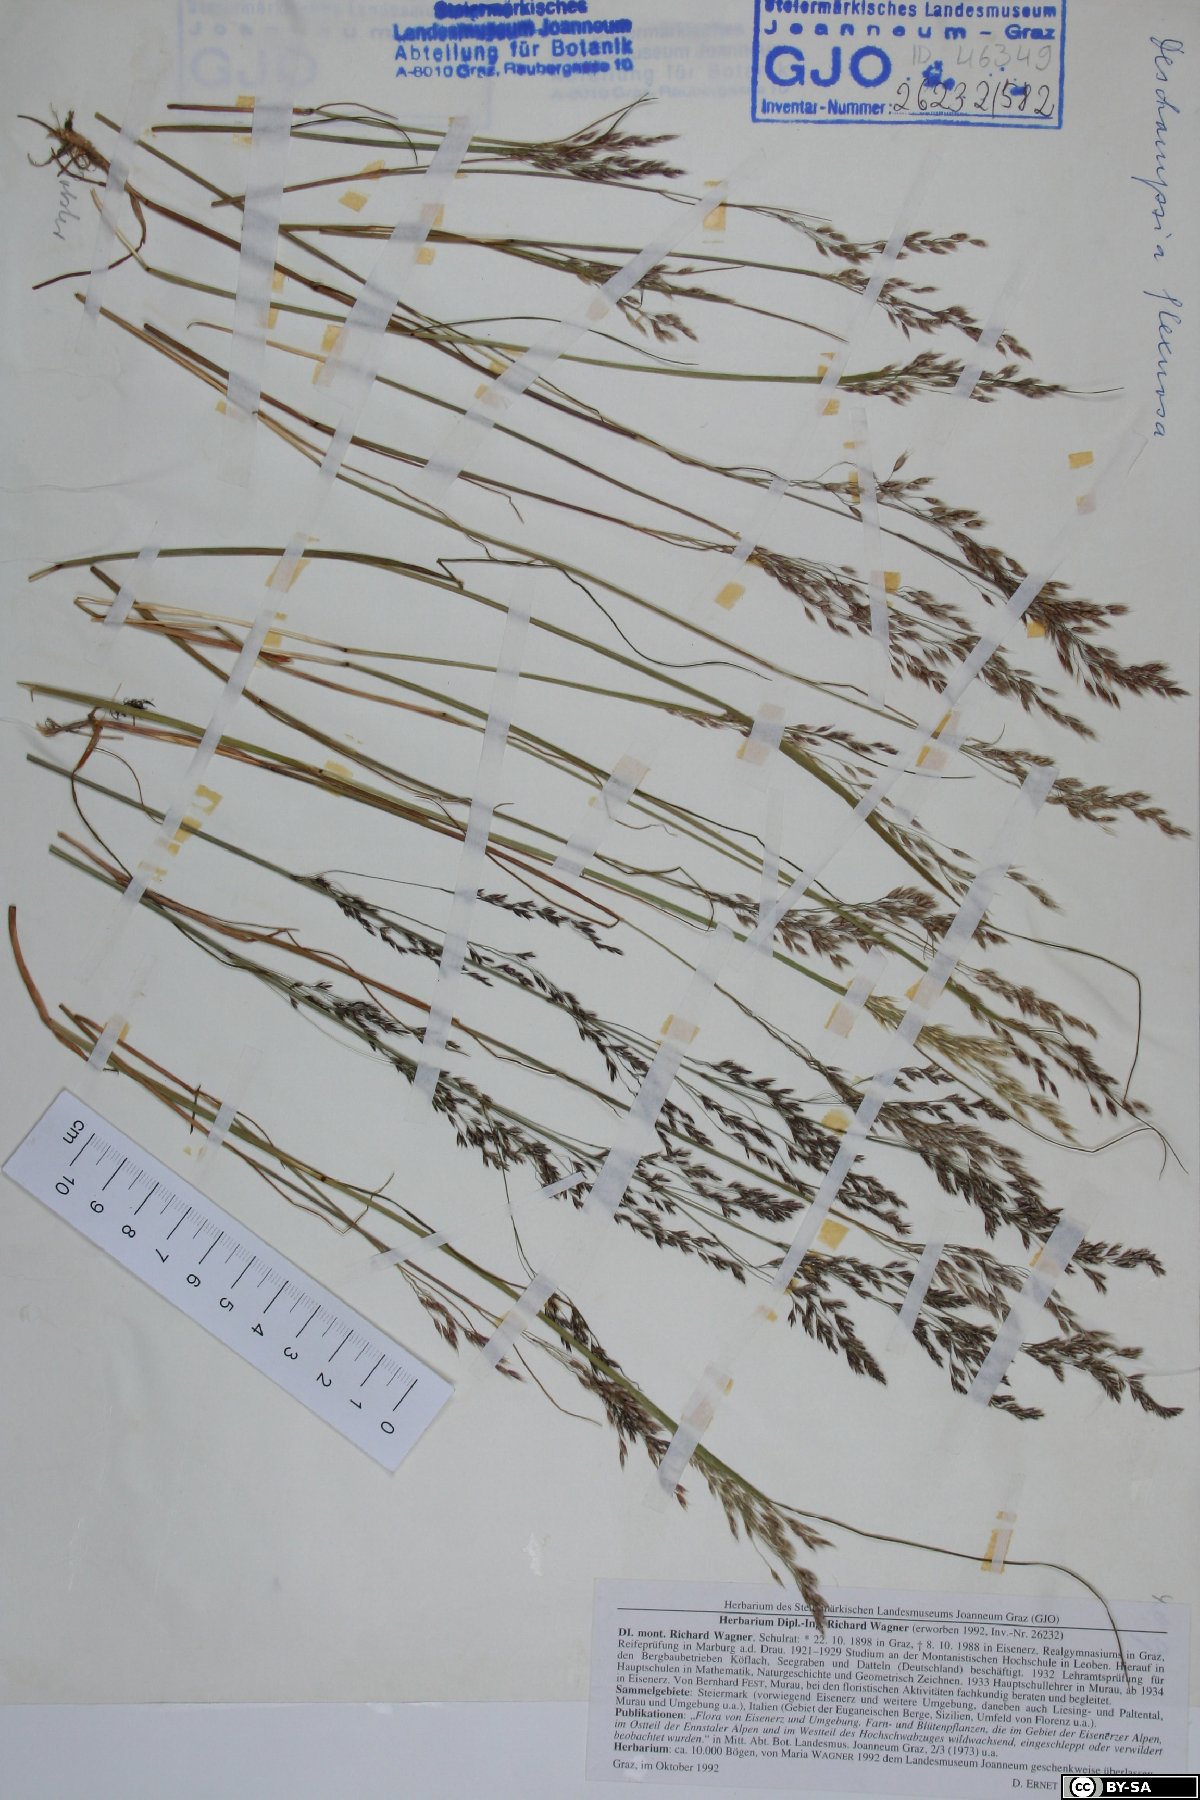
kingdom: Plantae
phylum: Tracheophyta
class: Liliopsida
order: Poales
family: Poaceae
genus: Avenella
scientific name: Avenella flexuosa
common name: Wavy hairgrass
